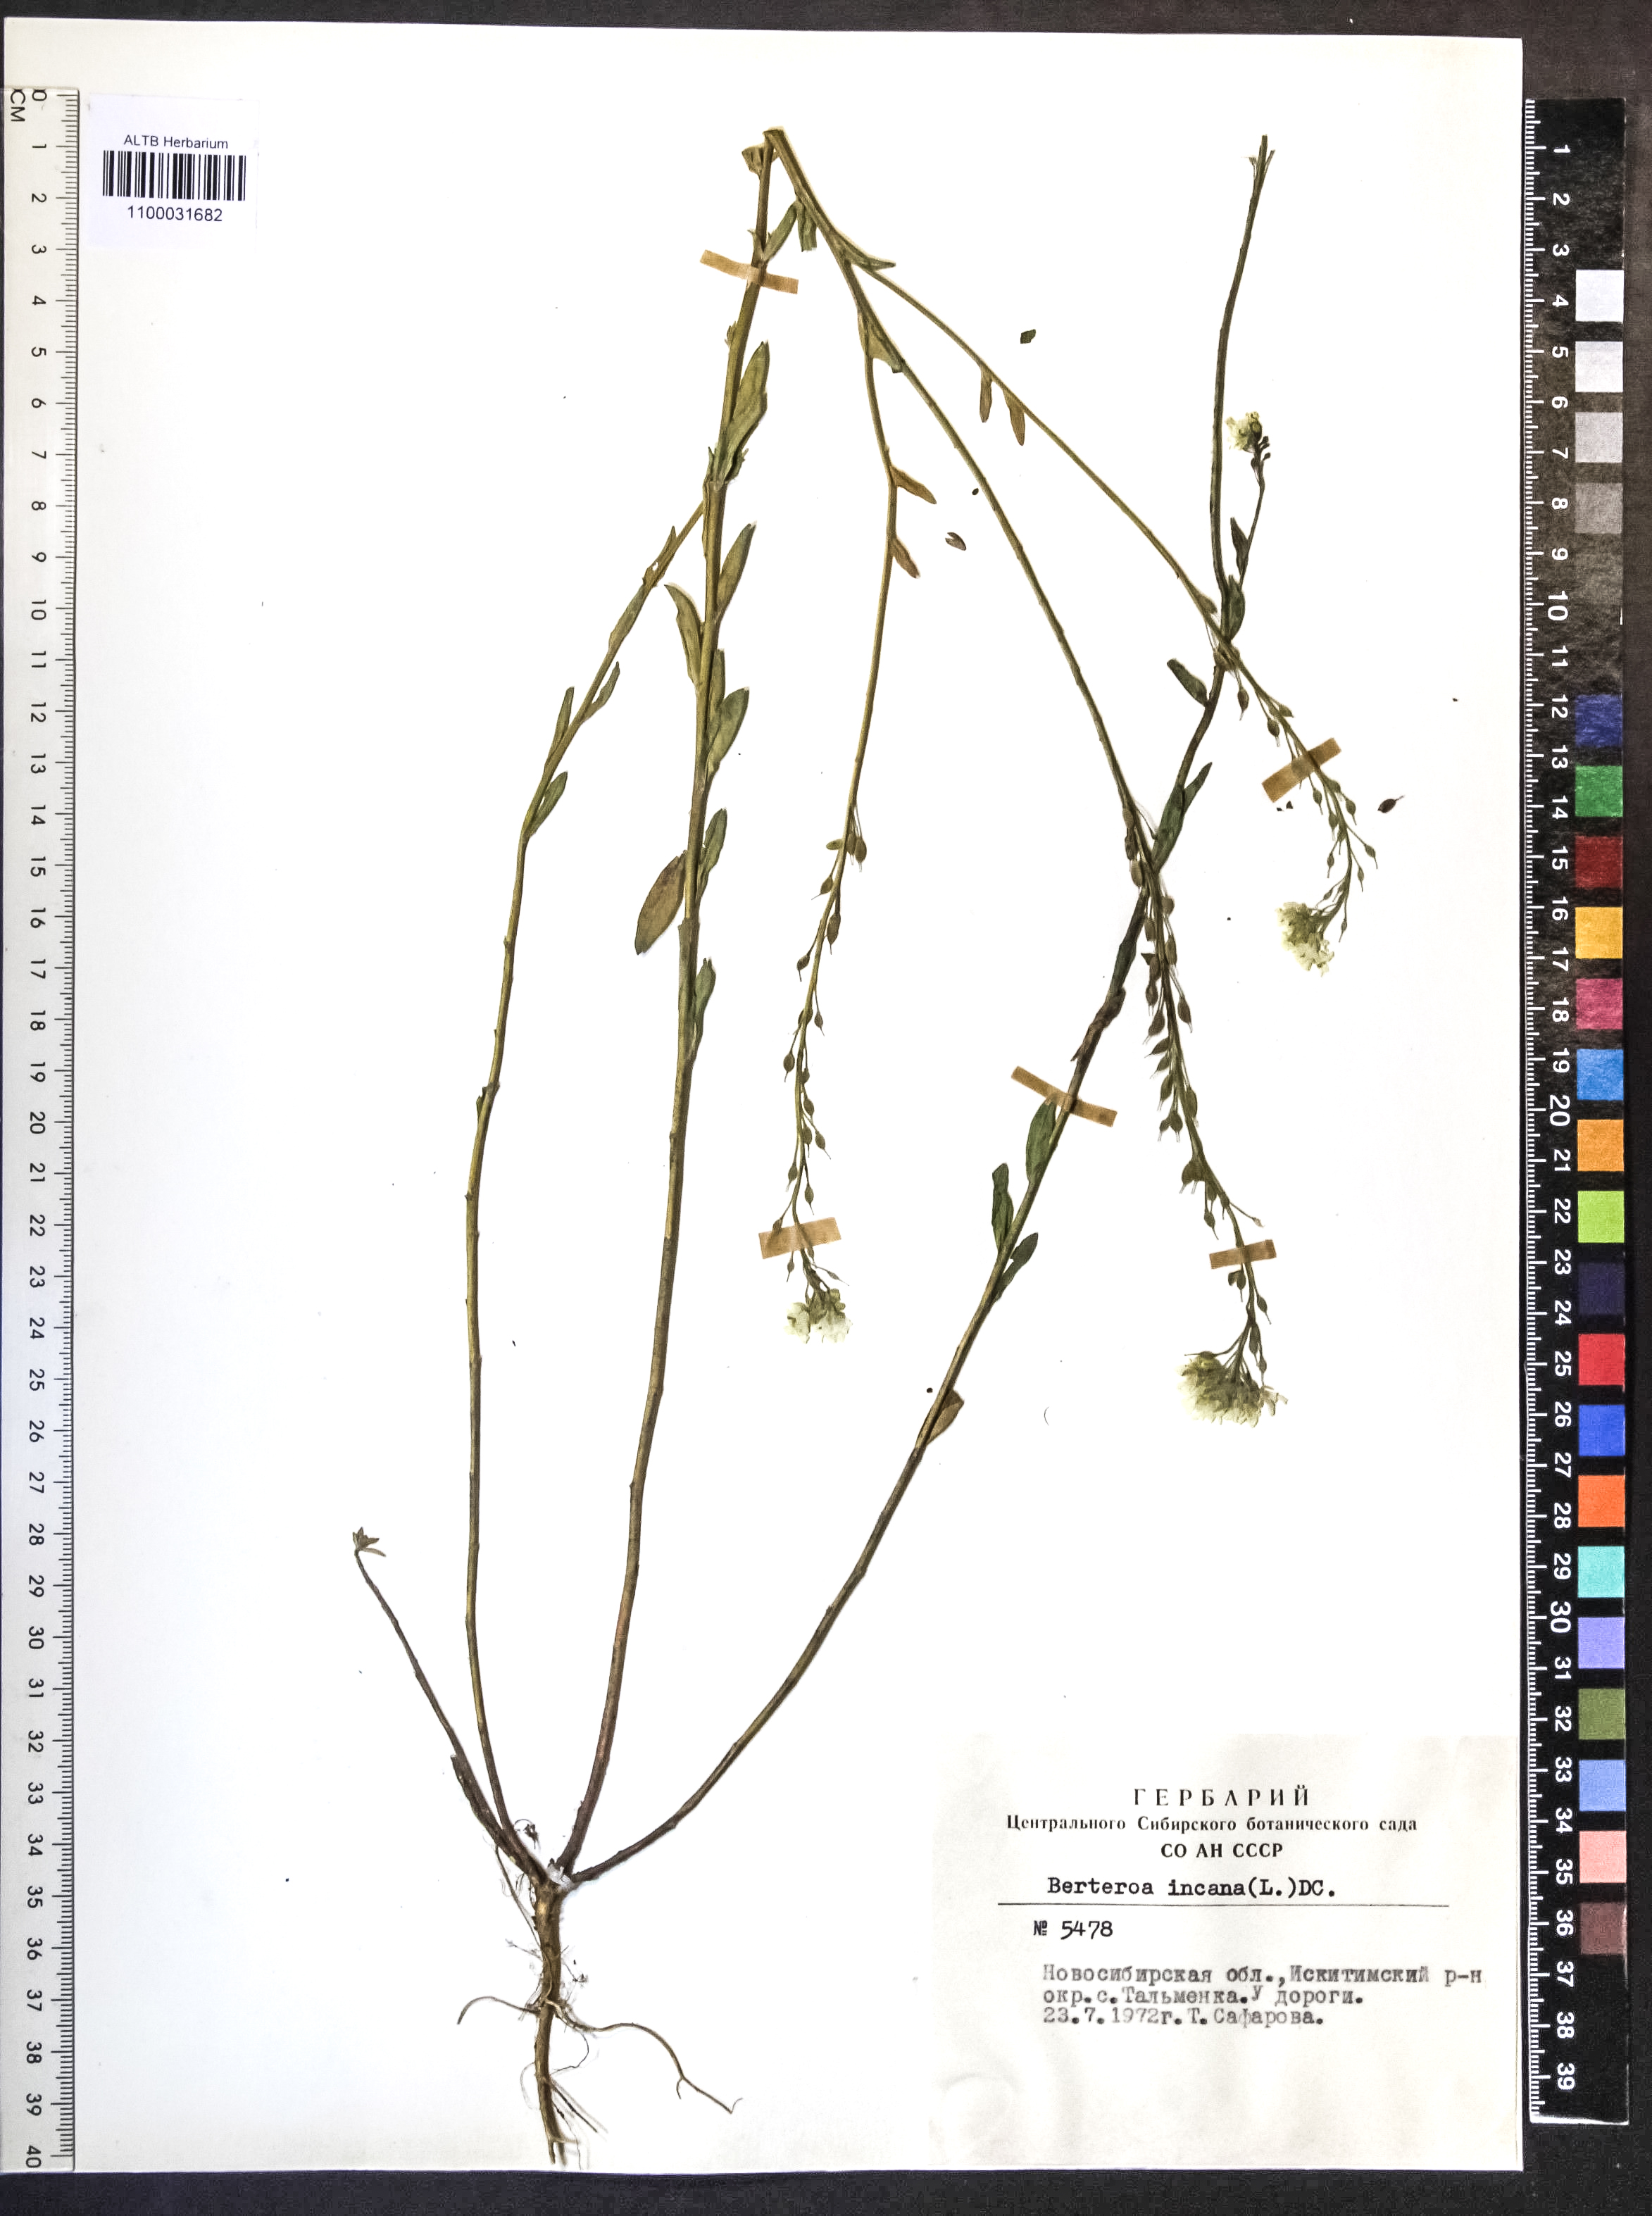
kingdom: Plantae
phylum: Tracheophyta
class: Magnoliopsida
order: Brassicales
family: Brassicaceae
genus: Berteroa
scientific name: Berteroa incana
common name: Hoary alison
